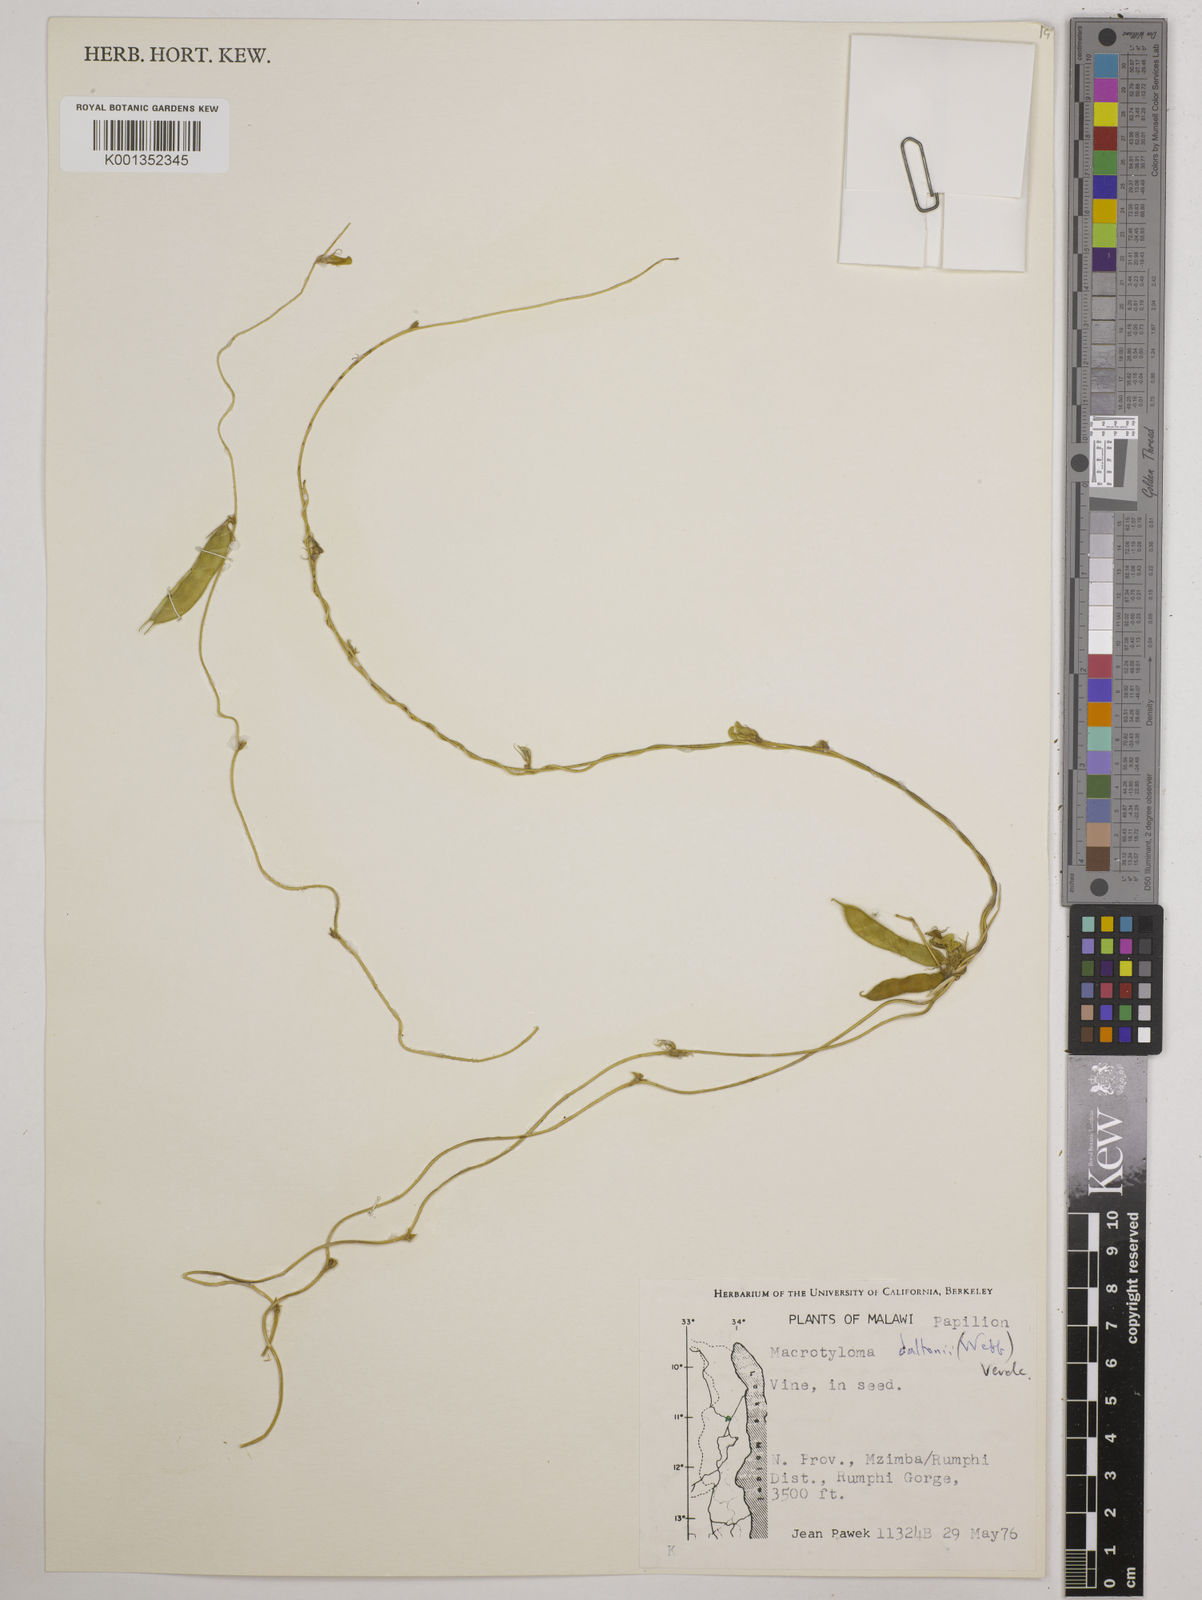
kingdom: Plantae
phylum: Tracheophyta
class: Magnoliopsida
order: Fabales
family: Fabaceae
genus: Macrotyloma
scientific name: Macrotyloma daltonii
